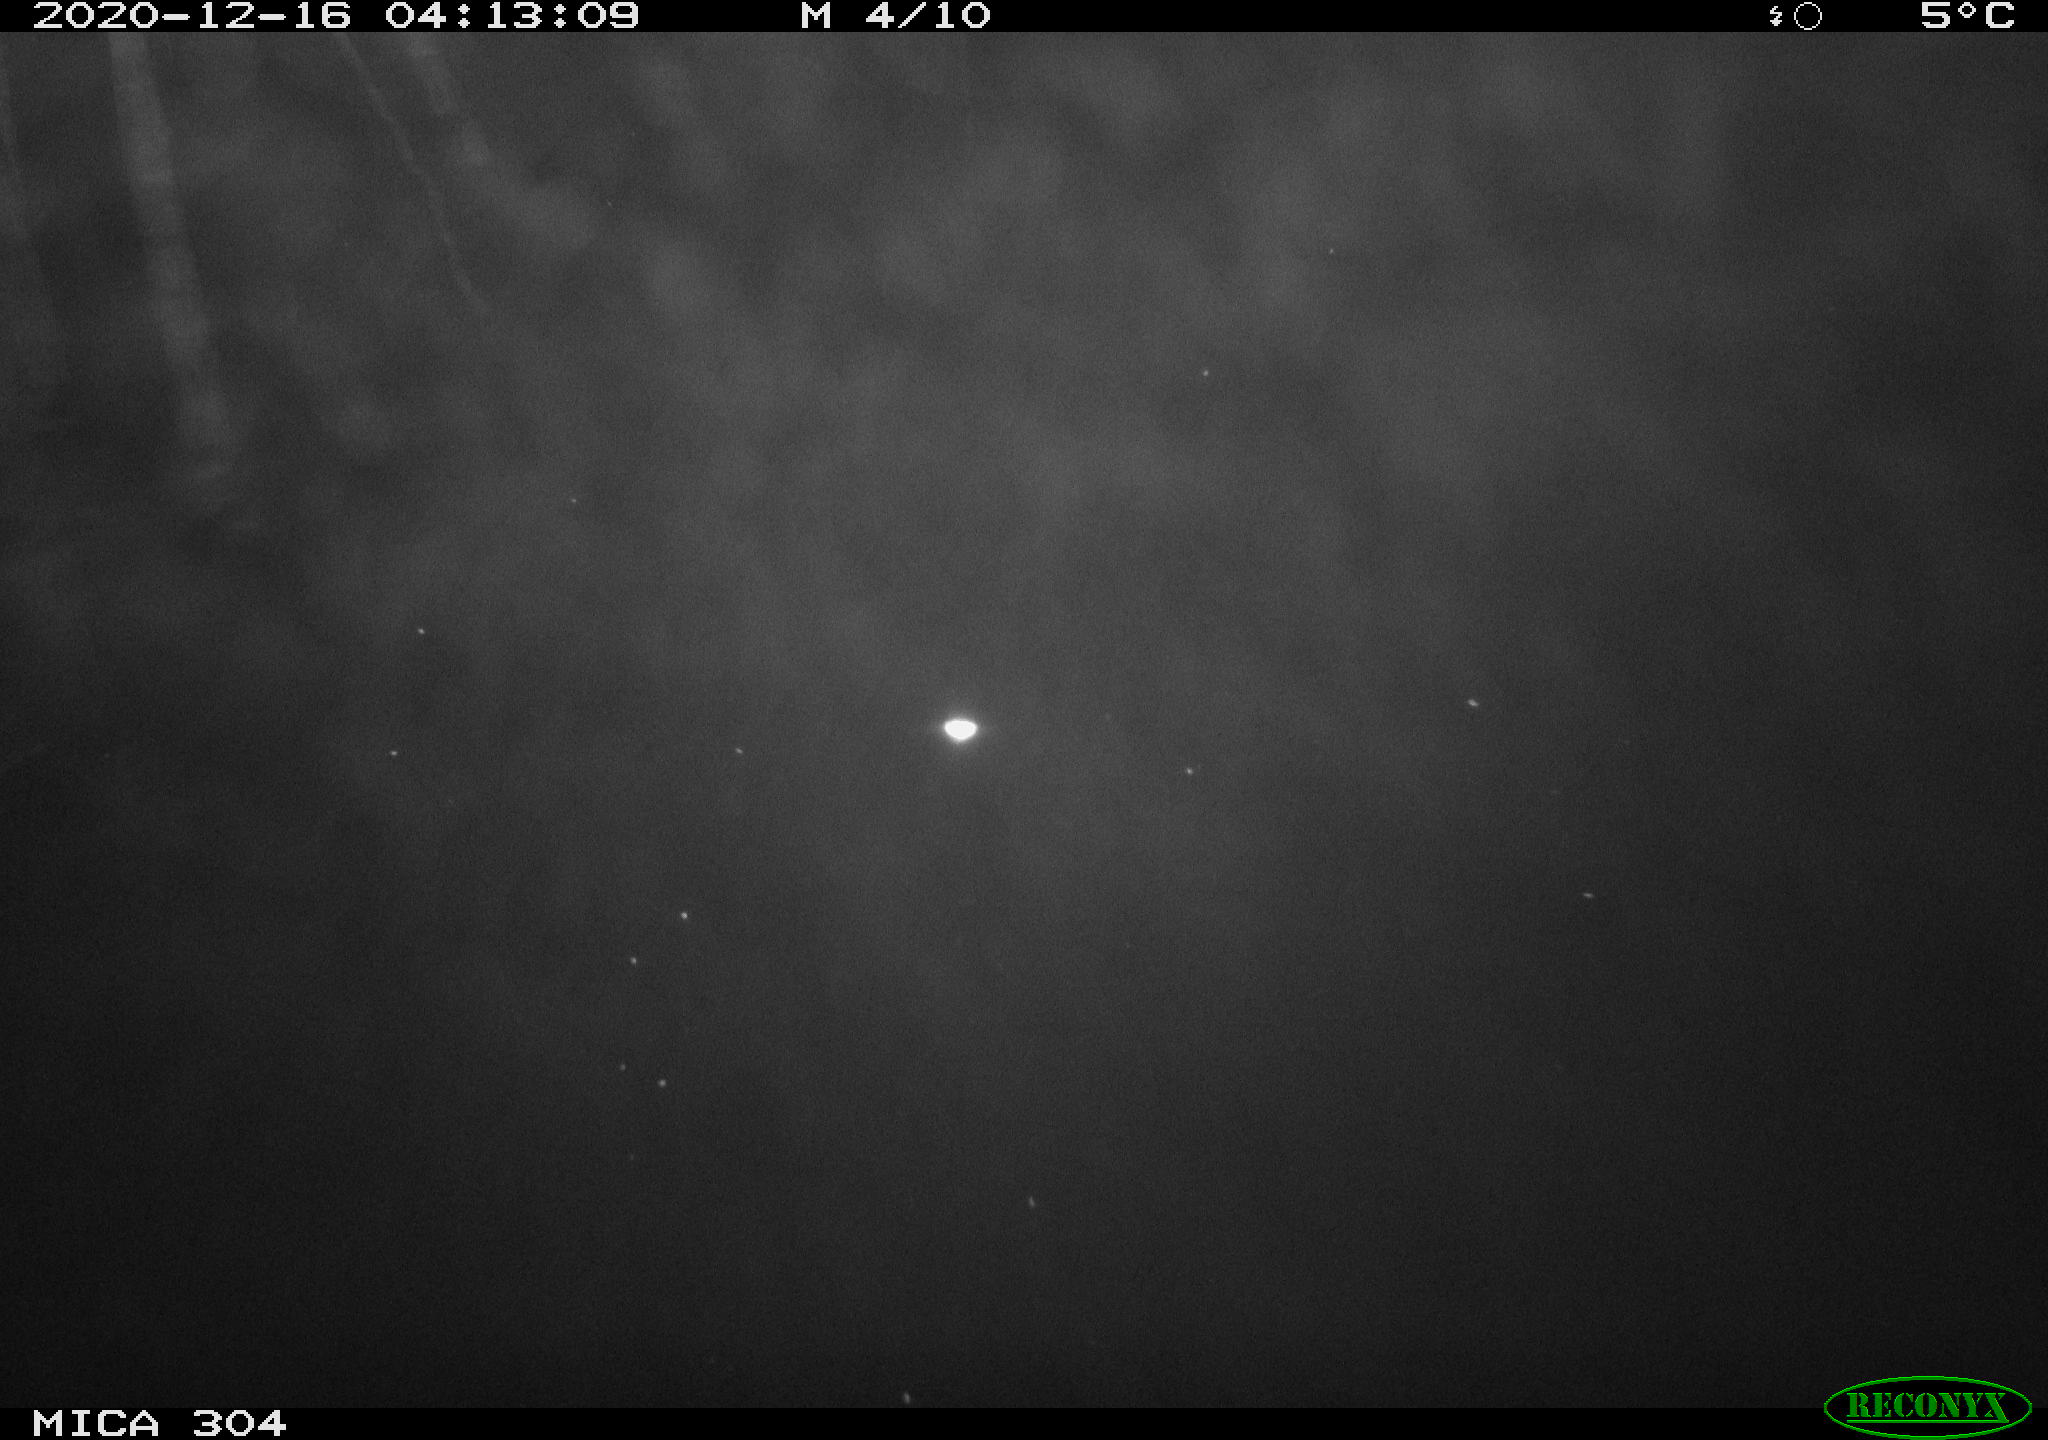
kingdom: Animalia
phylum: Chordata
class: Mammalia
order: Rodentia
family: Muridae
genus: Rattus
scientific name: Rattus norvegicus
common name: Brown rat
